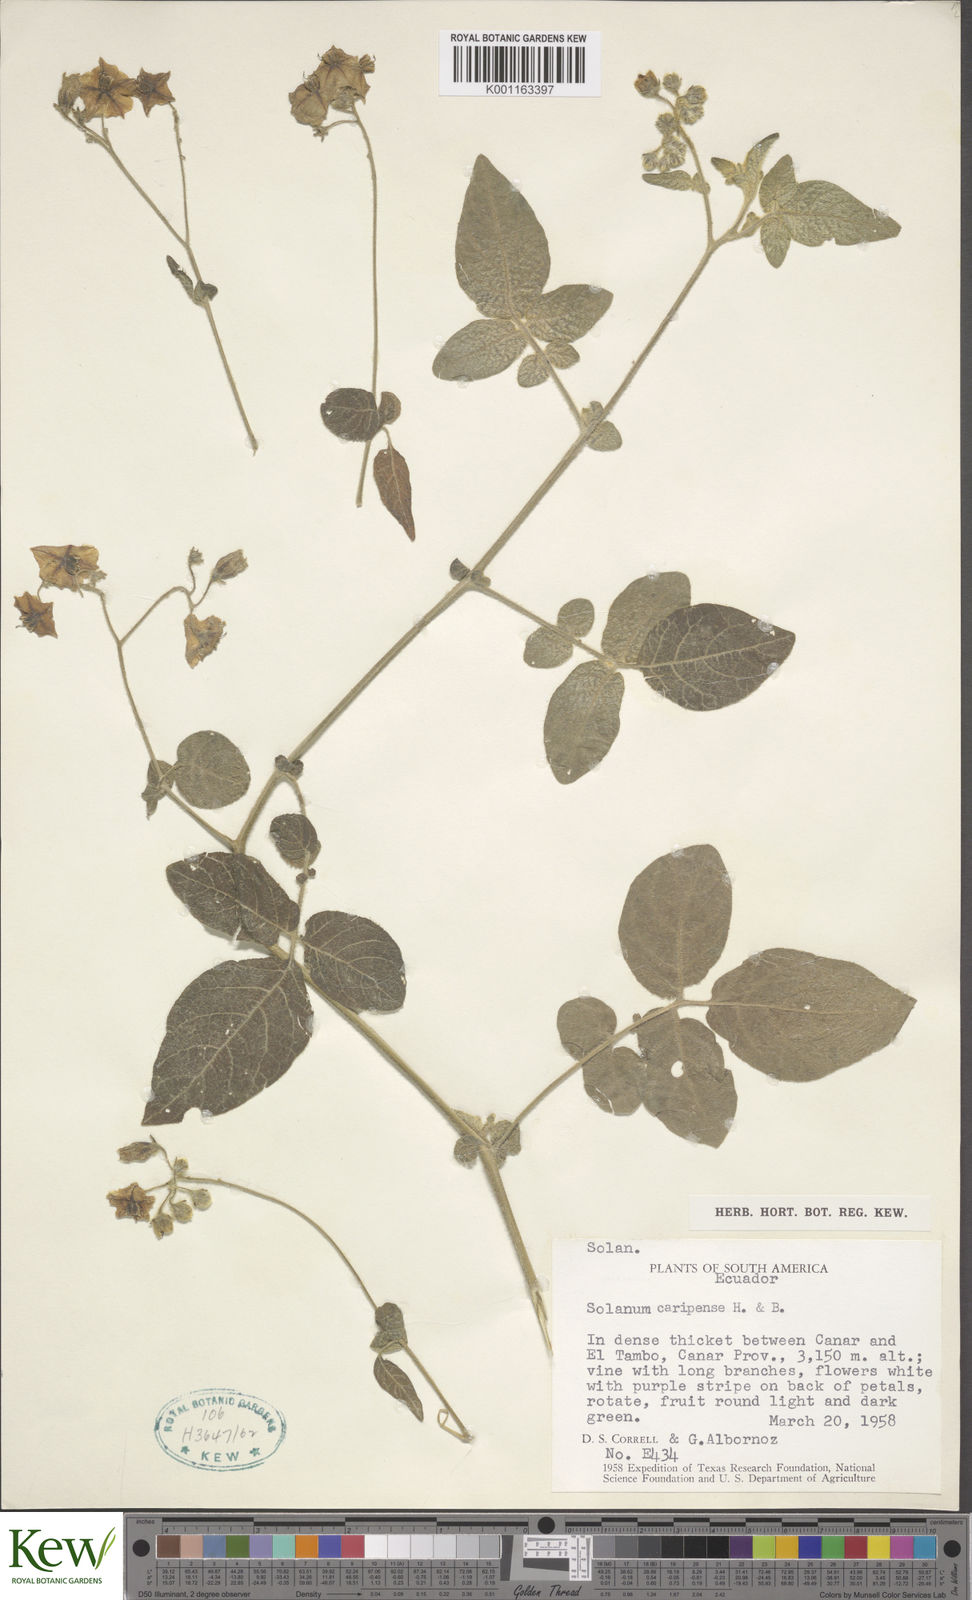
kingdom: Plantae
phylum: Tracheophyta
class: Magnoliopsida
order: Solanales
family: Solanaceae
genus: Solanum
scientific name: Solanum caripense
